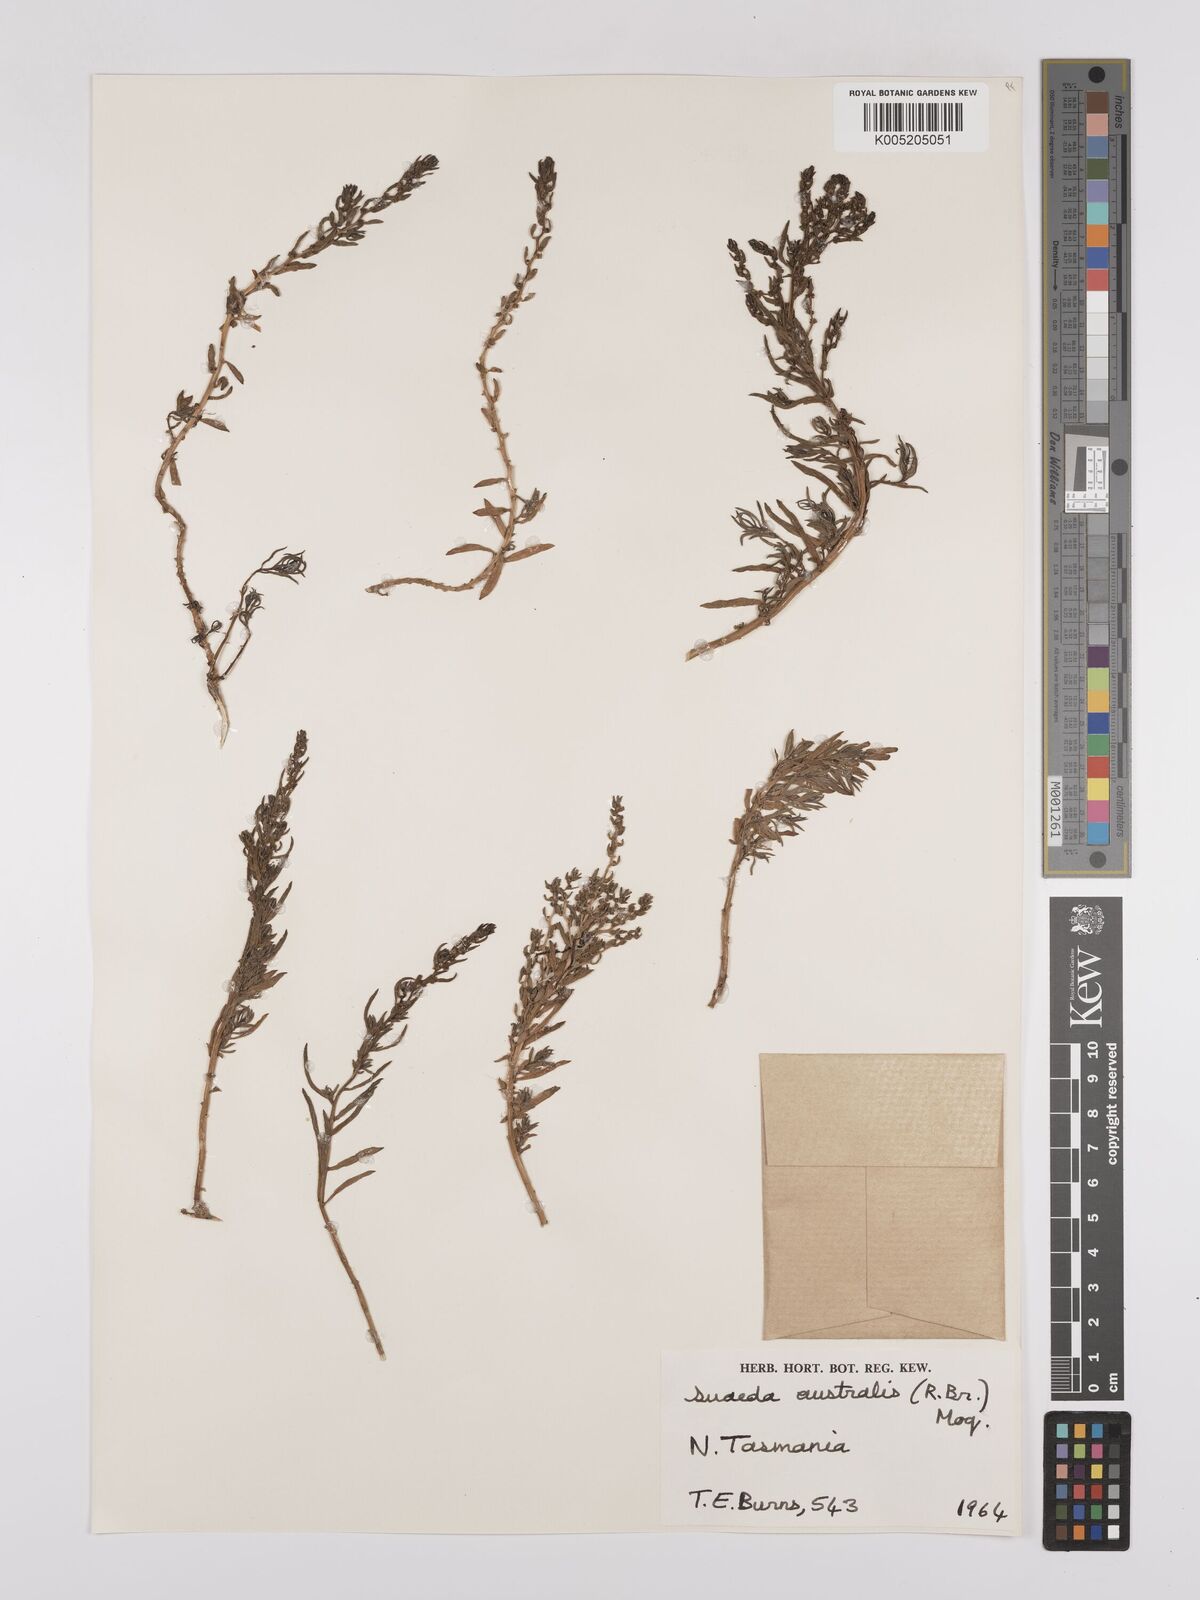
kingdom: Plantae
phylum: Tracheophyta
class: Magnoliopsida
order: Caryophyllales
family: Amaranthaceae
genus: Suaeda
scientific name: Suaeda australis
